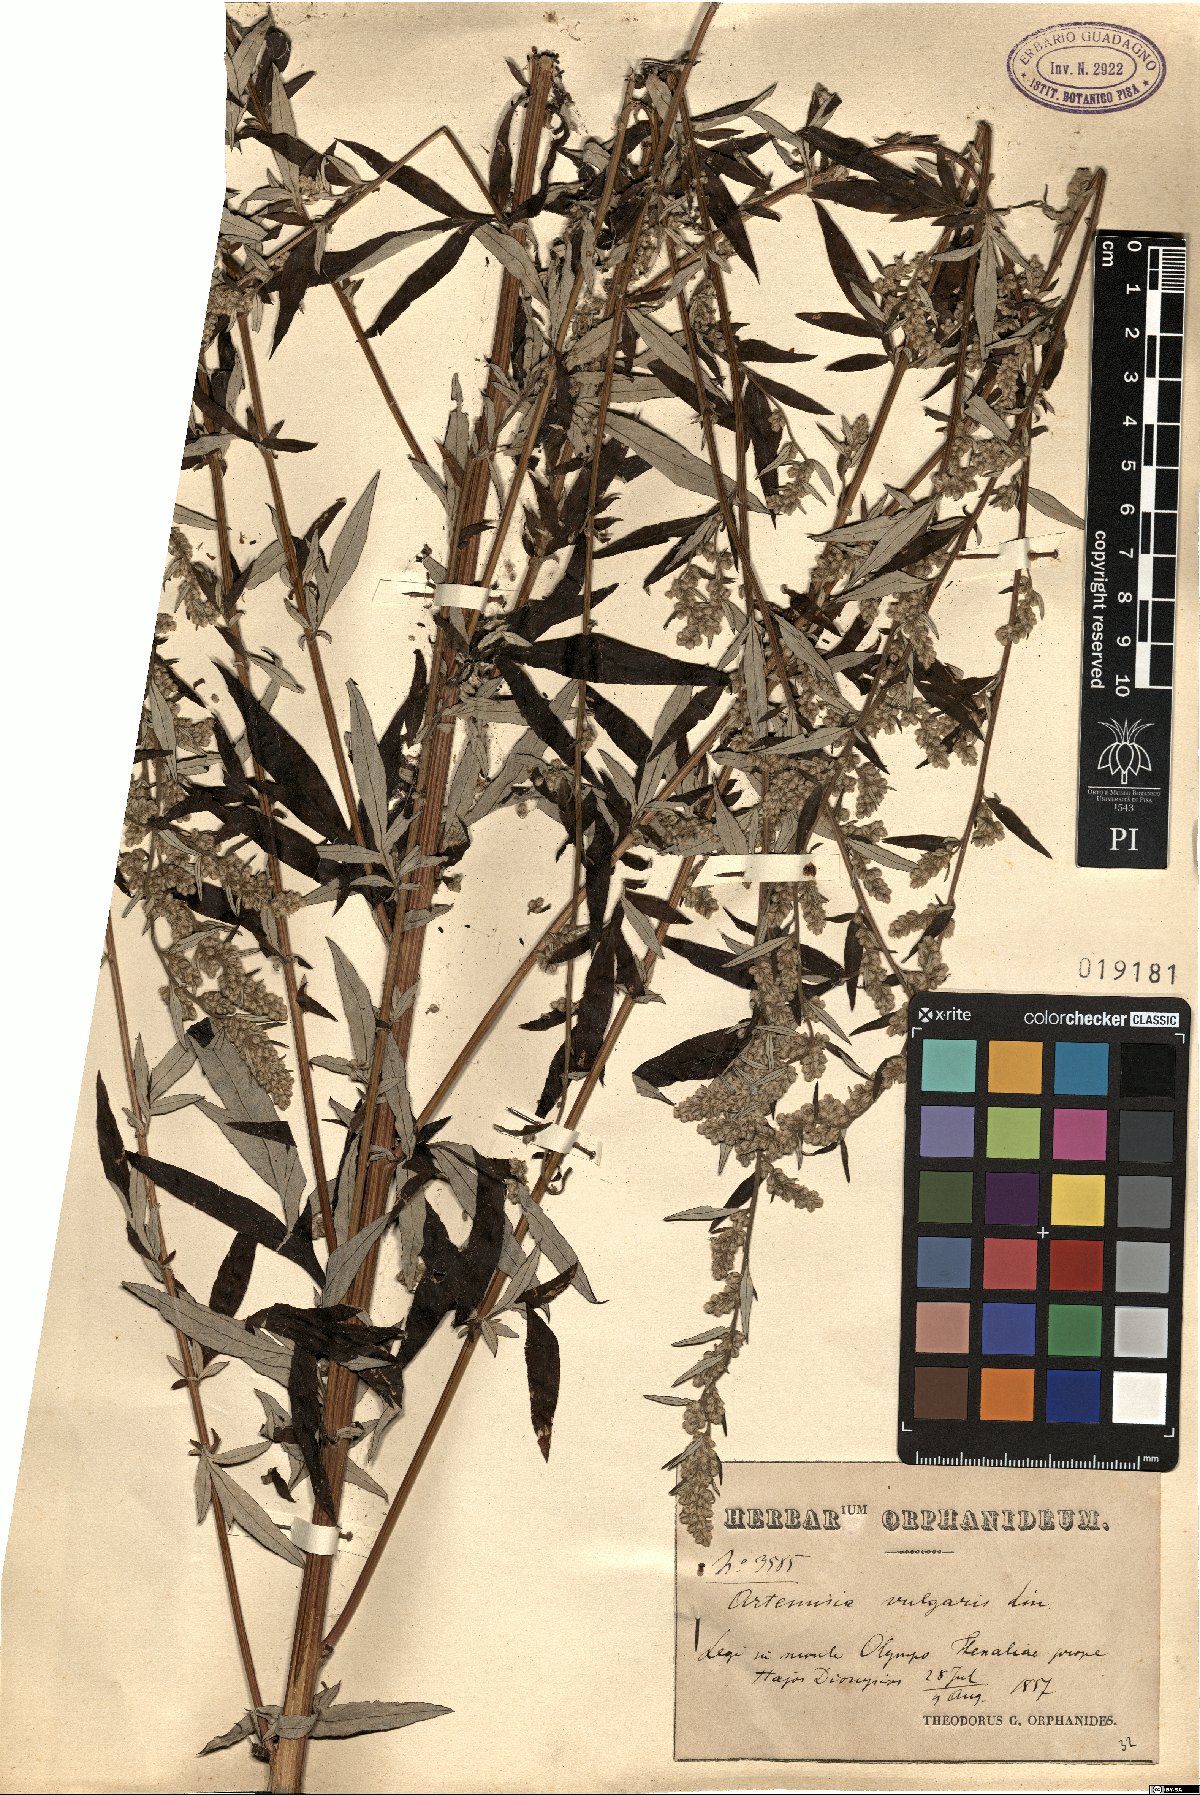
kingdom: Plantae
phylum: Tracheophyta
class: Magnoliopsida
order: Asterales
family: Asteraceae
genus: Artemisia
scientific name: Artemisia vulgaris
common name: Mugwort
